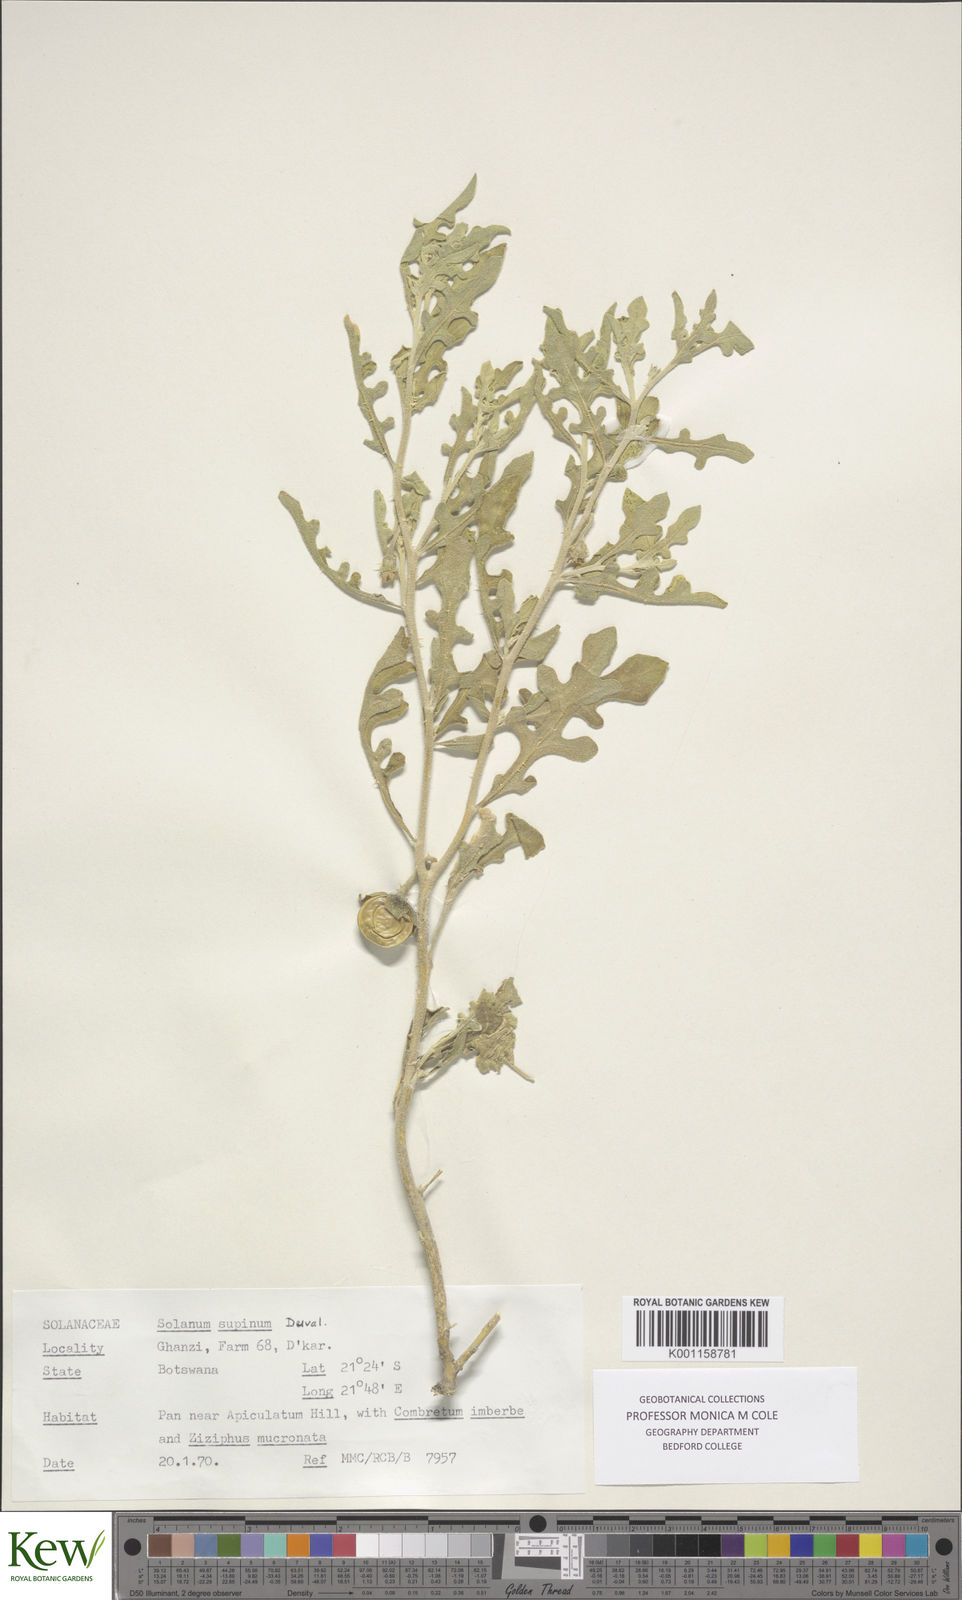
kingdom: Plantae
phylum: Tracheophyta
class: Magnoliopsida
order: Solanales
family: Solanaceae
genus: Solanum
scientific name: Solanum supinum
